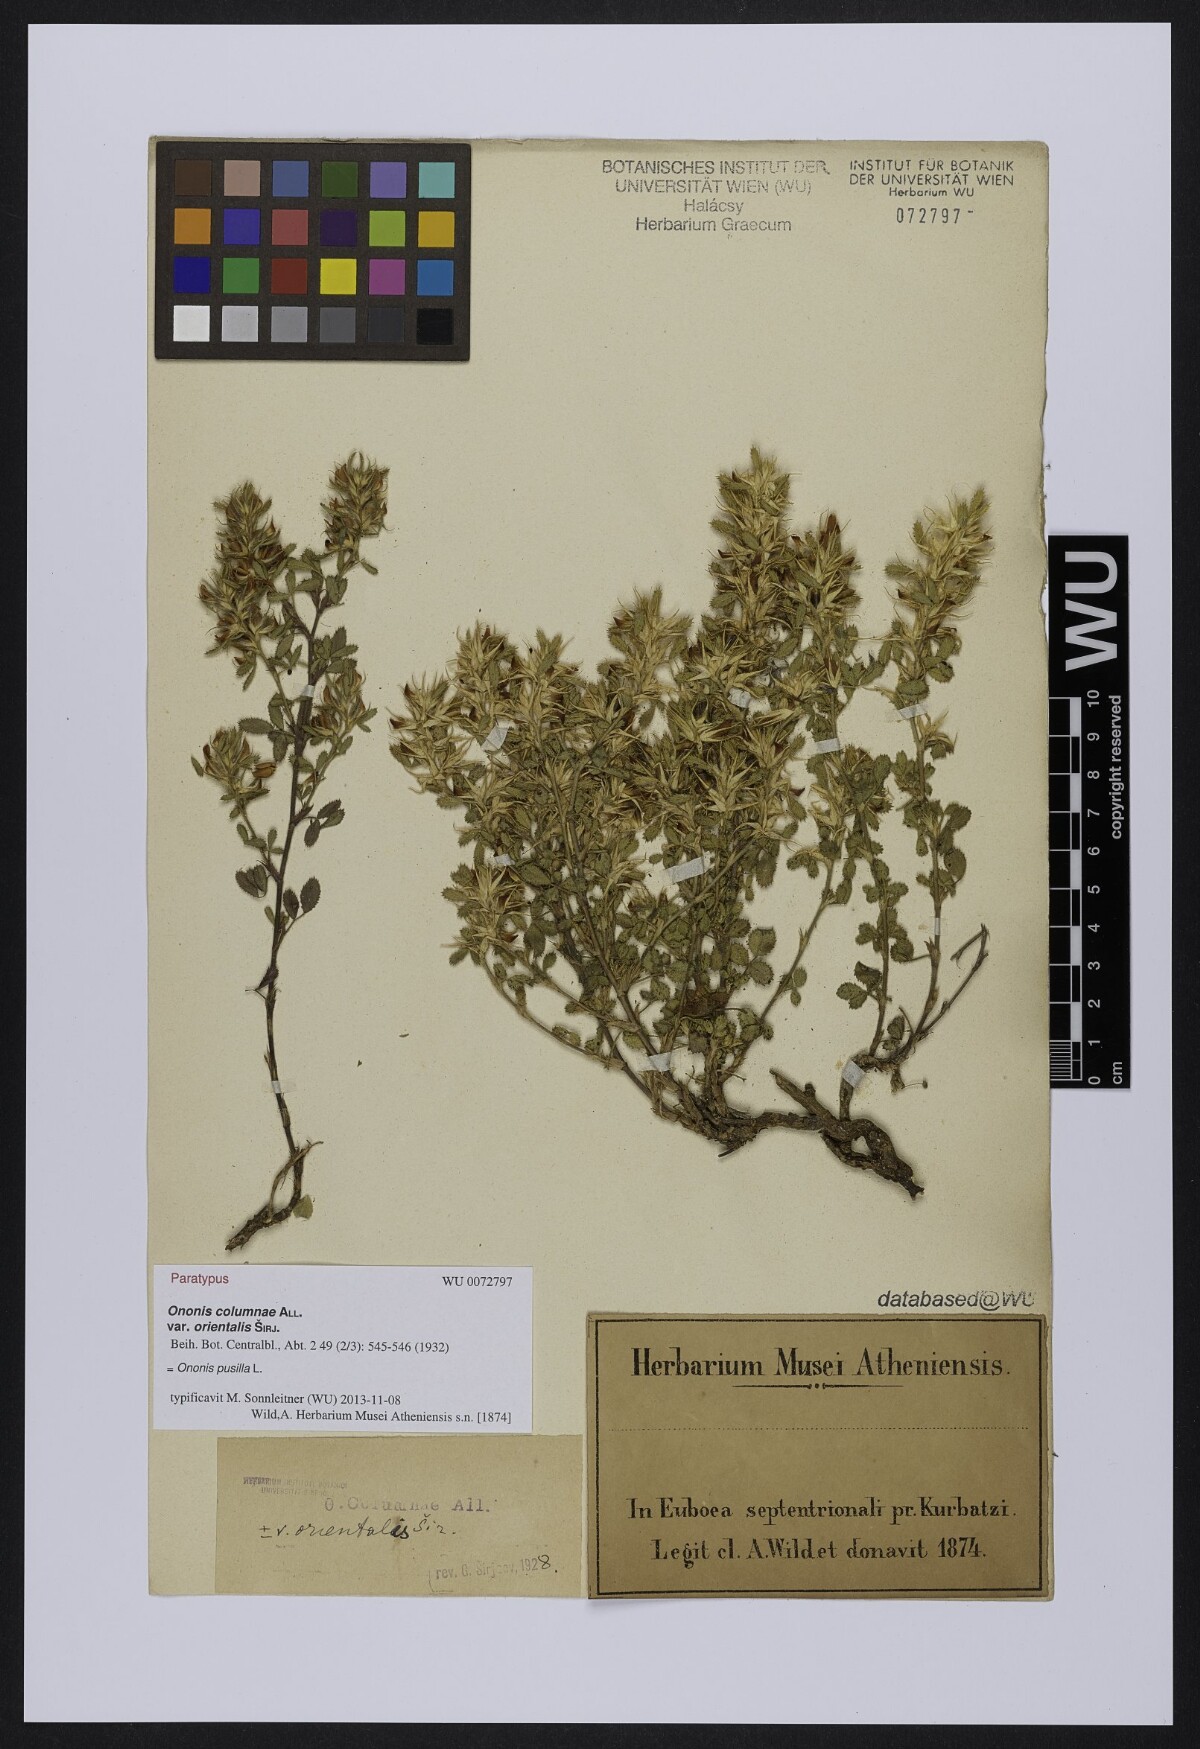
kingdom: Plantae
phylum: Tracheophyta
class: Magnoliopsida
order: Fabales
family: Fabaceae
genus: Ononis
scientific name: Ononis pusilla
